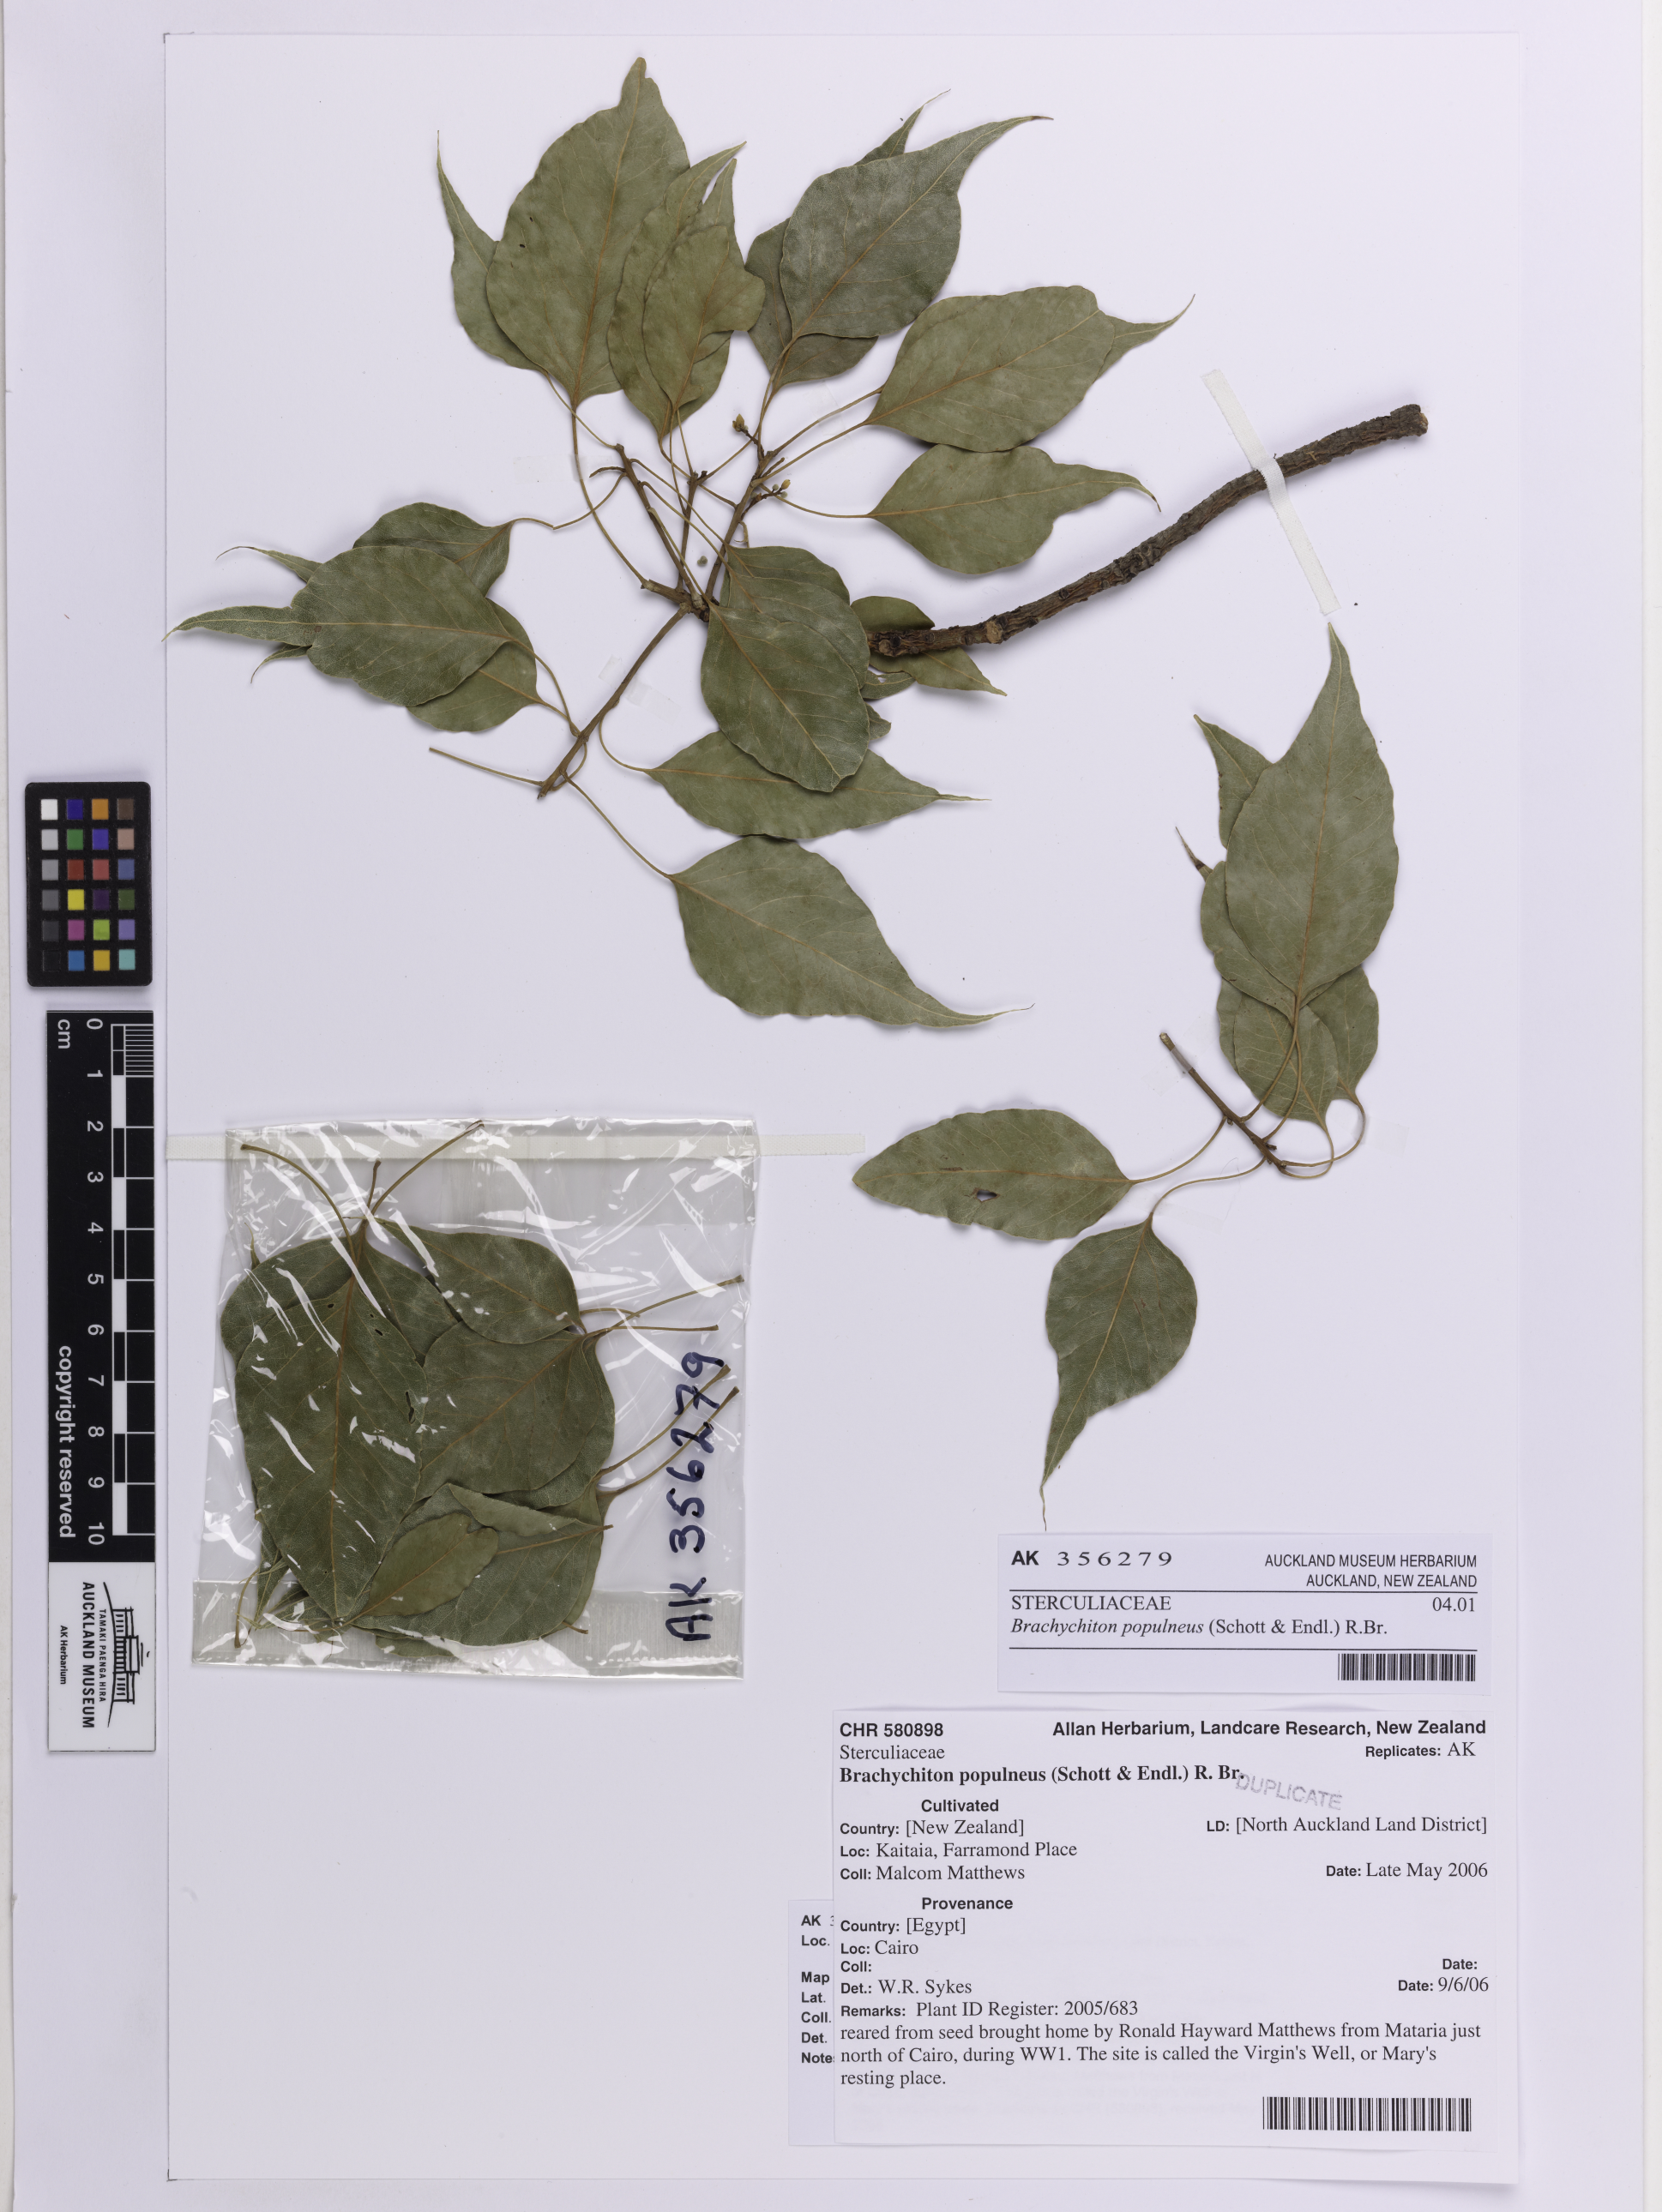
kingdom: Plantae
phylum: Tracheophyta
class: Magnoliopsida
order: Malvales
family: Malvaceae
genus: Brachychiton
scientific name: Brachychiton populneus
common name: Kurrajong
